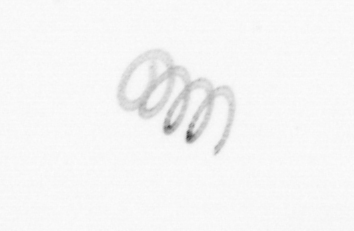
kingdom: Chromista
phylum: Ochrophyta
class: Bacillariophyceae
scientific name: Bacillariophyceae
